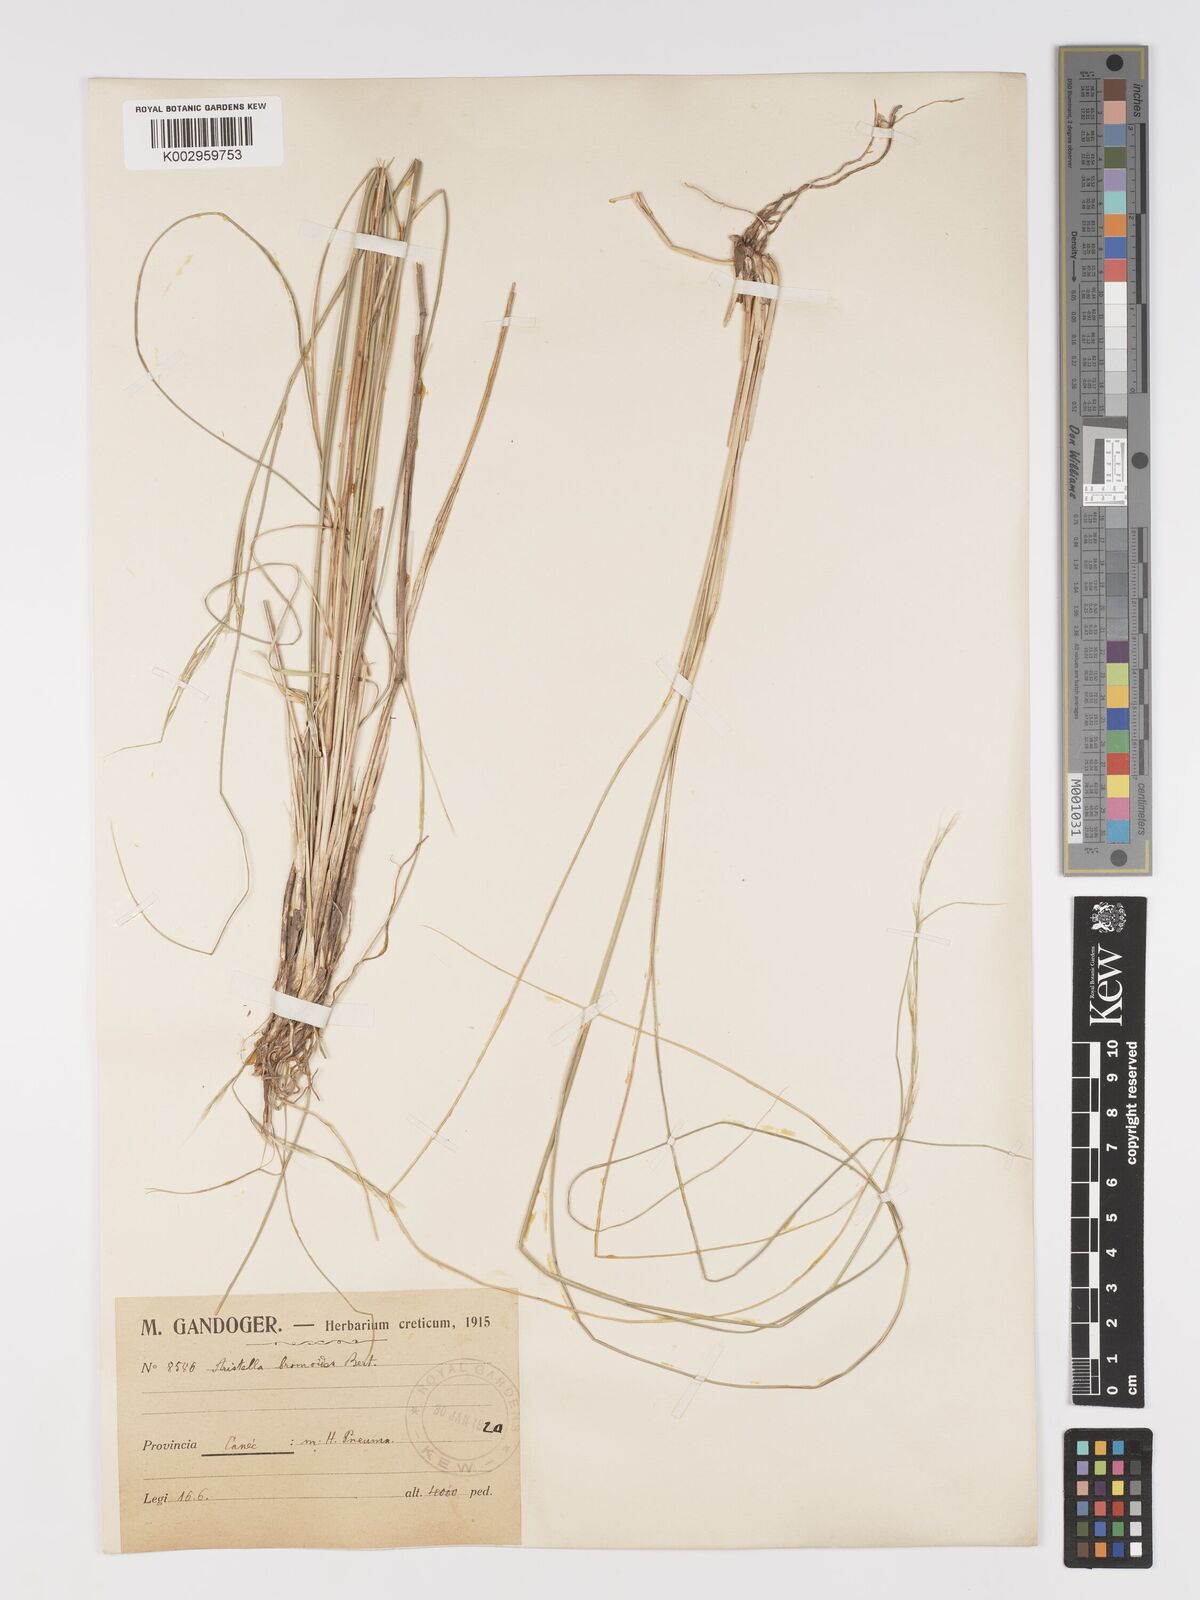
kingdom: Plantae
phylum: Tracheophyta
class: Liliopsida
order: Poales
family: Poaceae
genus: Achnatherum
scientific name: Achnatherum bromoides
